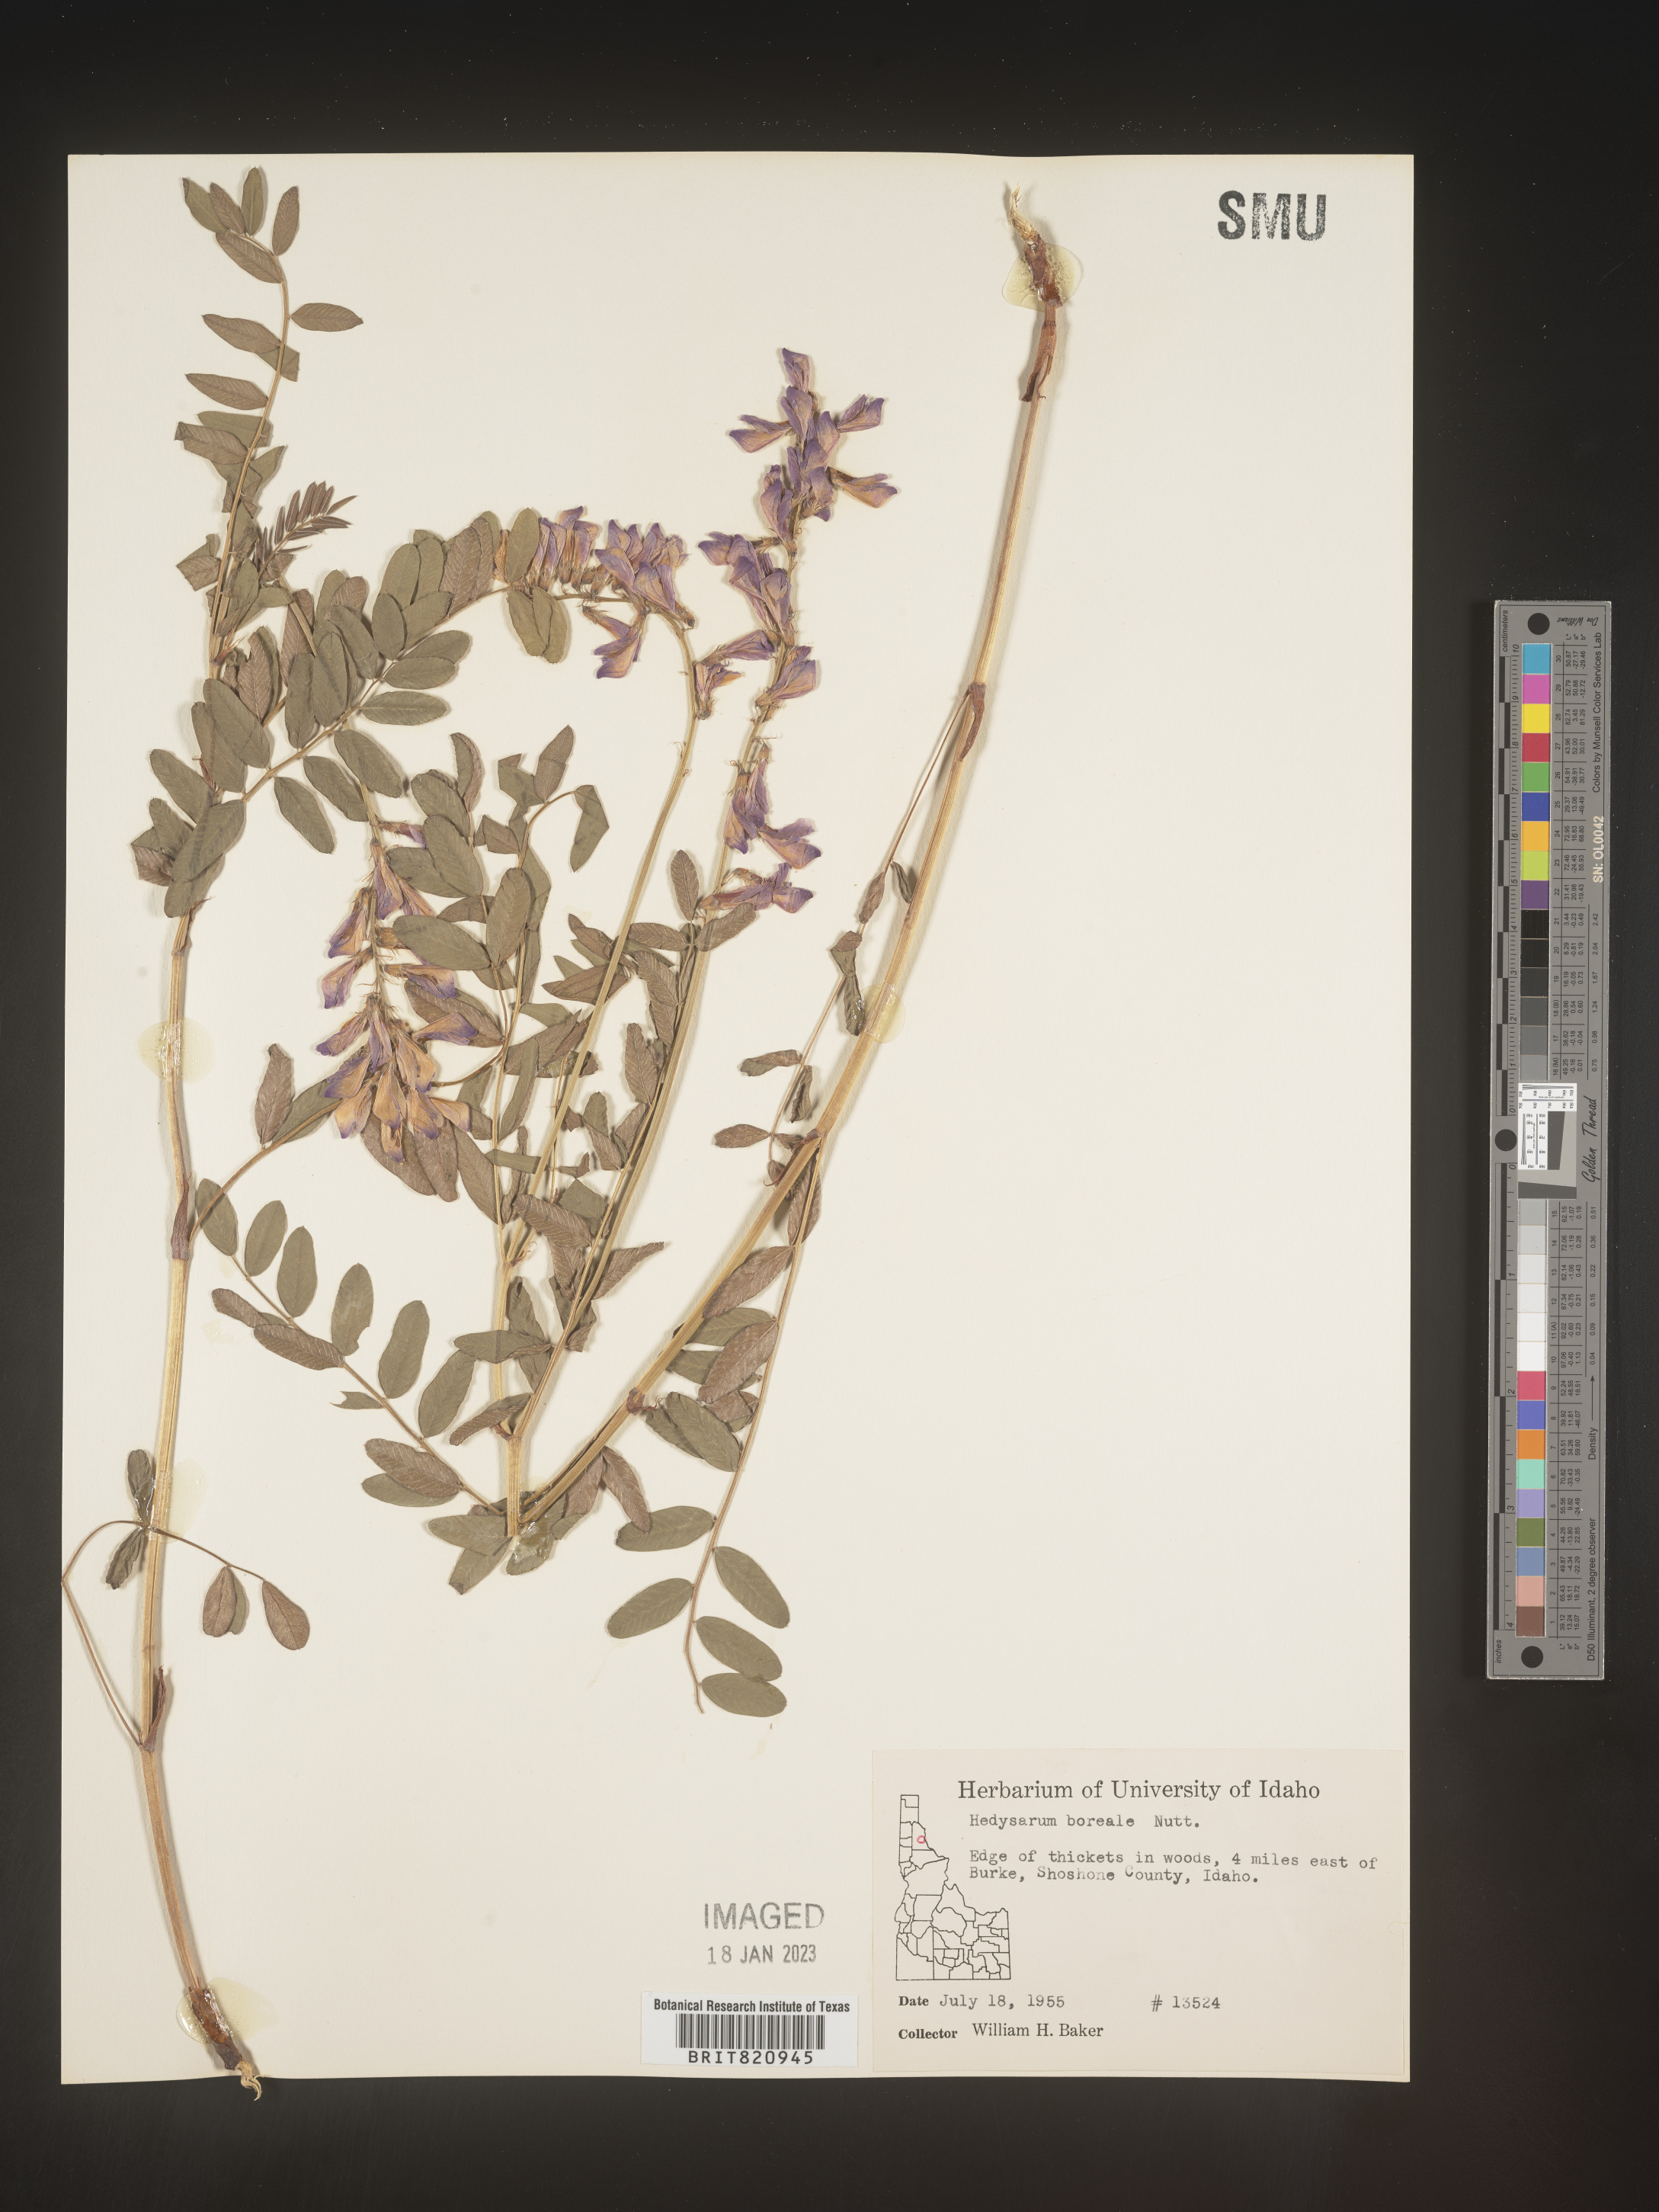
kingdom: Plantae
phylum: Tracheophyta
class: Magnoliopsida
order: Fabales
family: Fabaceae
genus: Hedysarum
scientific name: Hedysarum boreale
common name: Northern sweet-vetch
